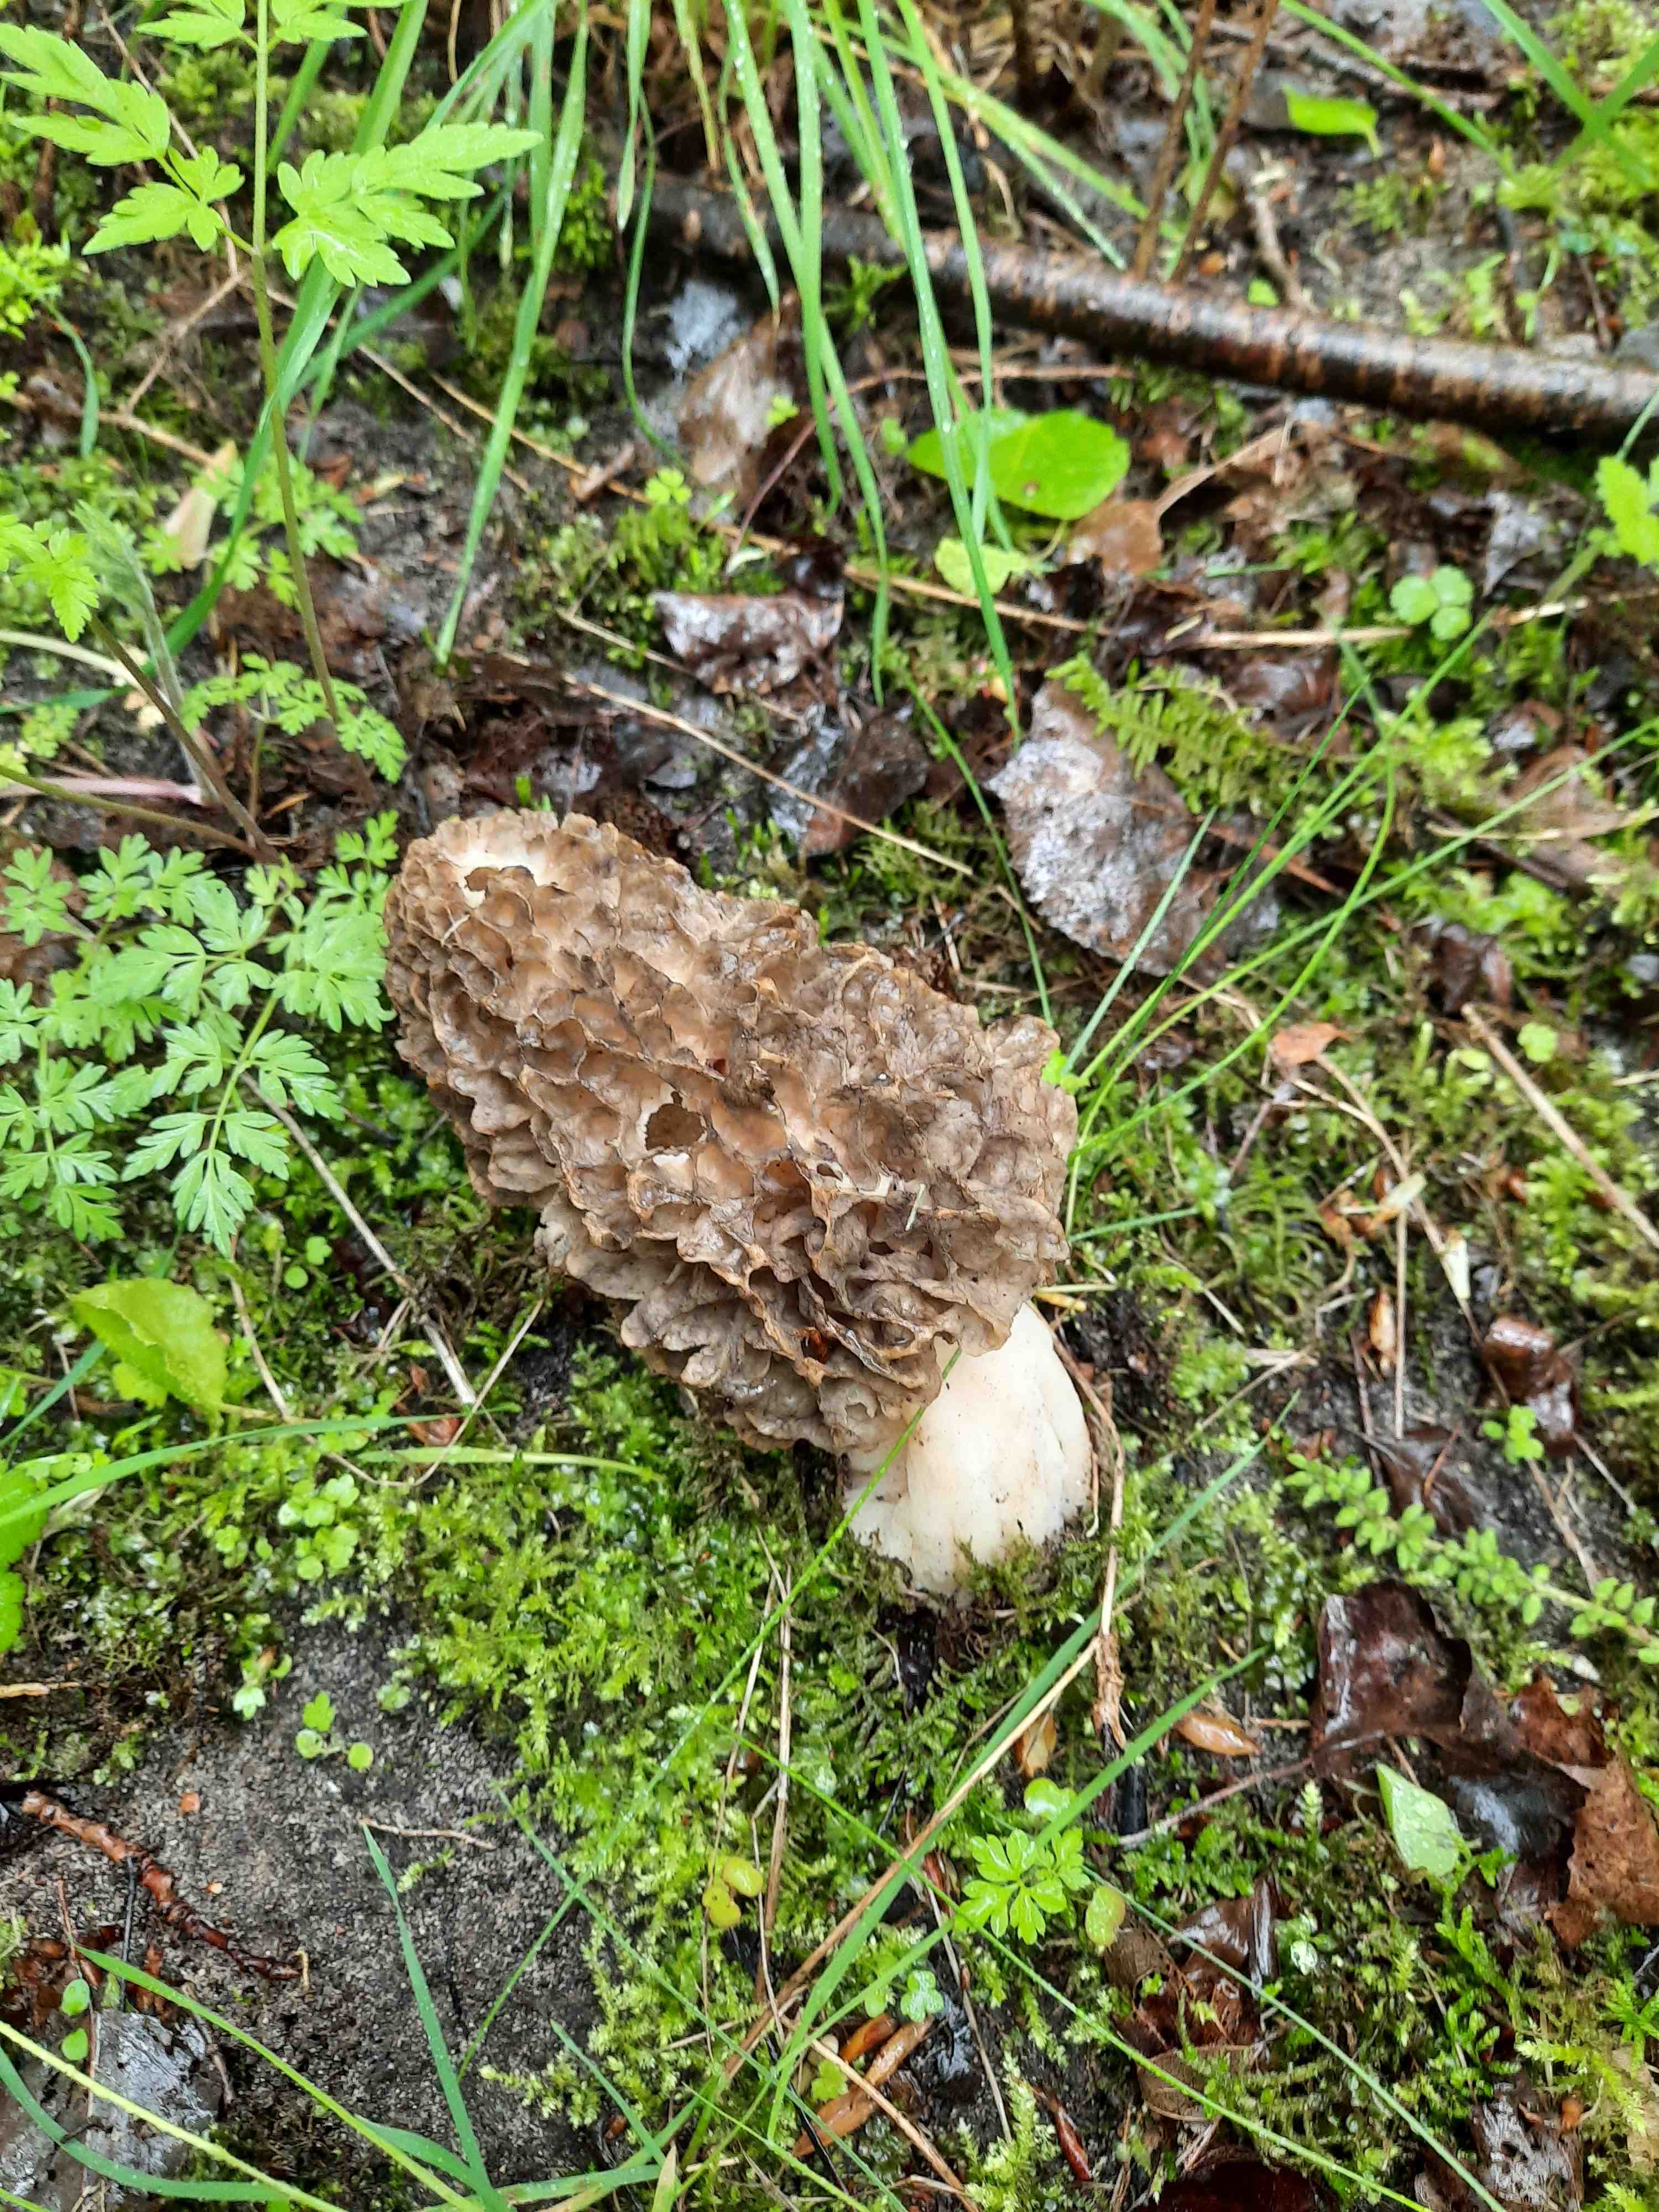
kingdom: Fungi
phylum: Ascomycota
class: Pezizomycetes
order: Pezizales
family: Morchellaceae
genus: Morchella
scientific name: Morchella esculenta
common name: almindelig morkel
